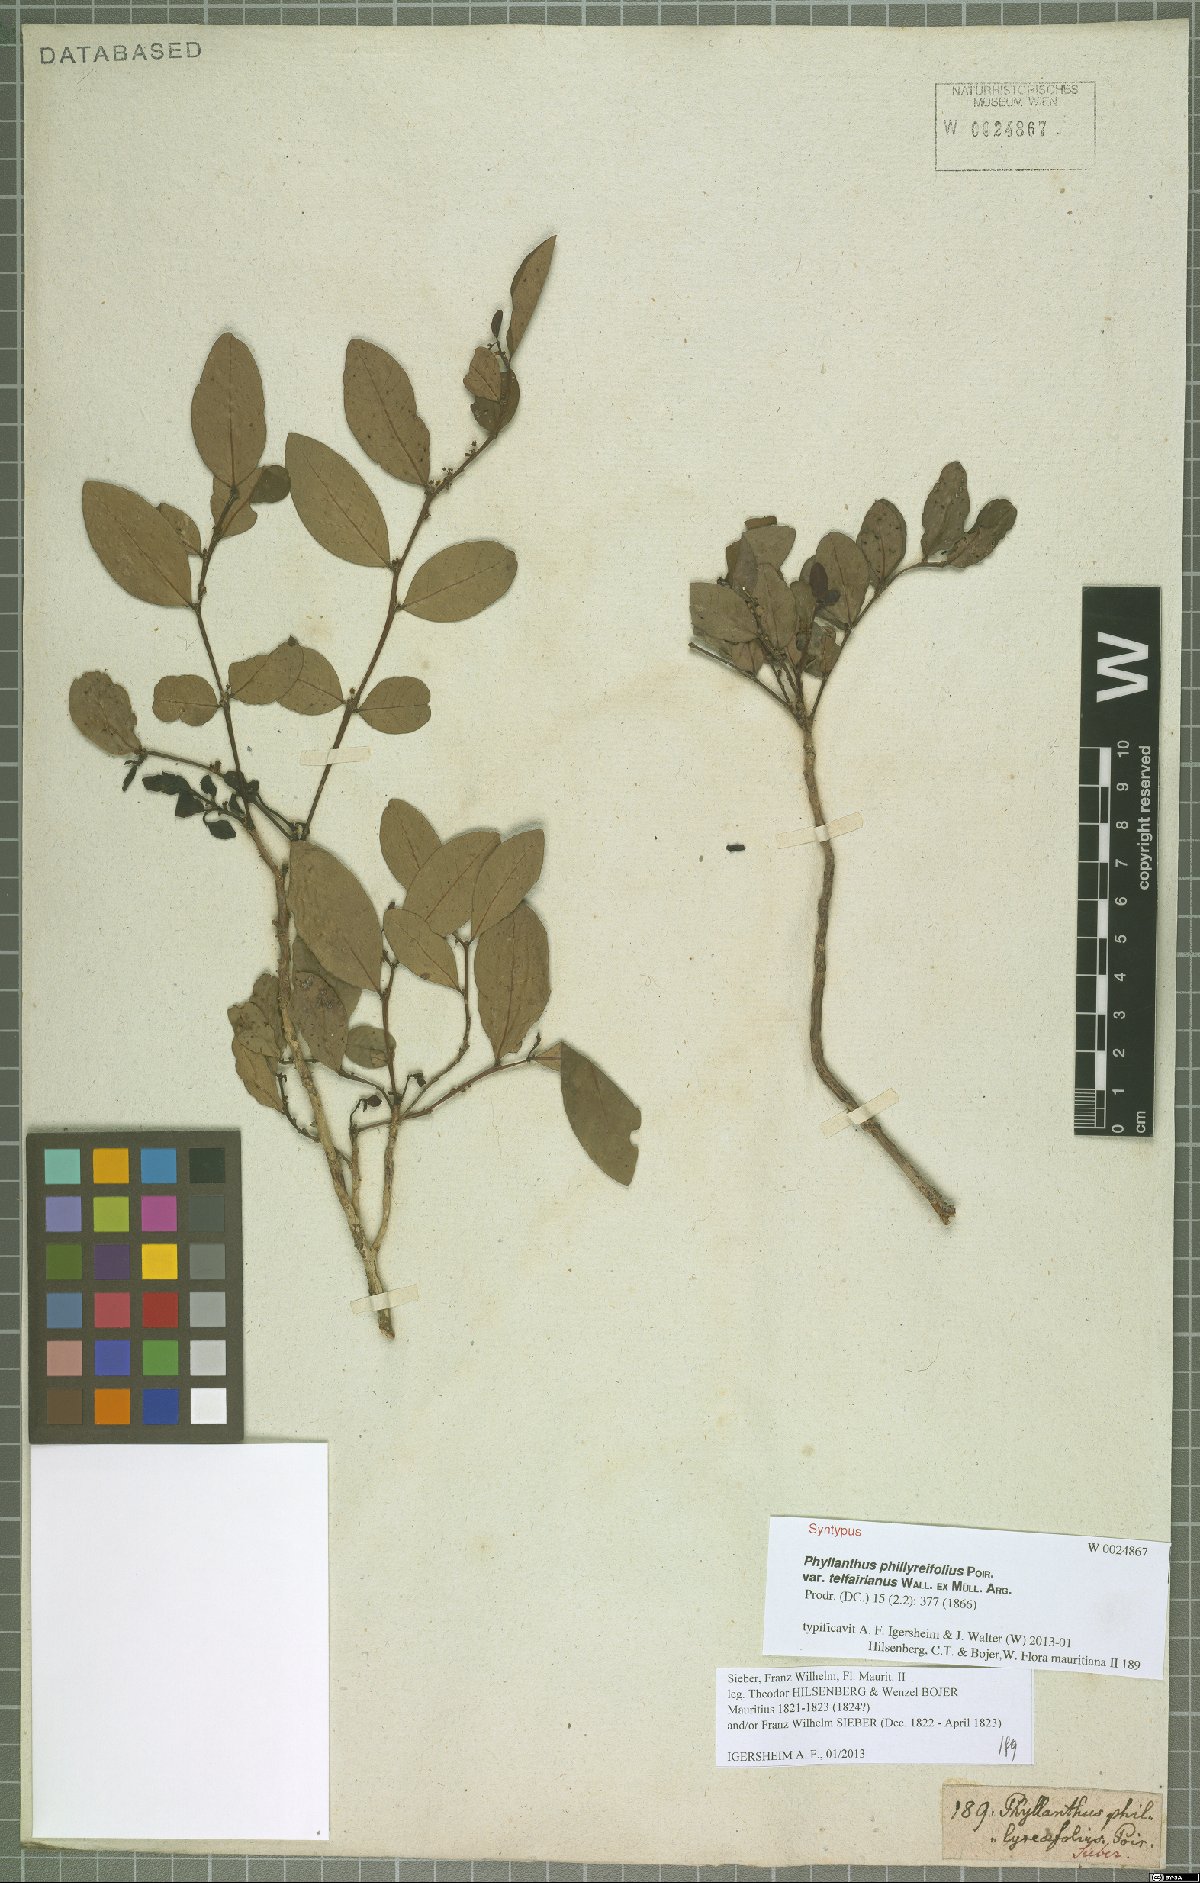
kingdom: Plantae
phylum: Tracheophyta
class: Magnoliopsida
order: Malpighiales
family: Phyllanthaceae
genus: Phyllanthus
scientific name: Phyllanthus phillyreifolius
